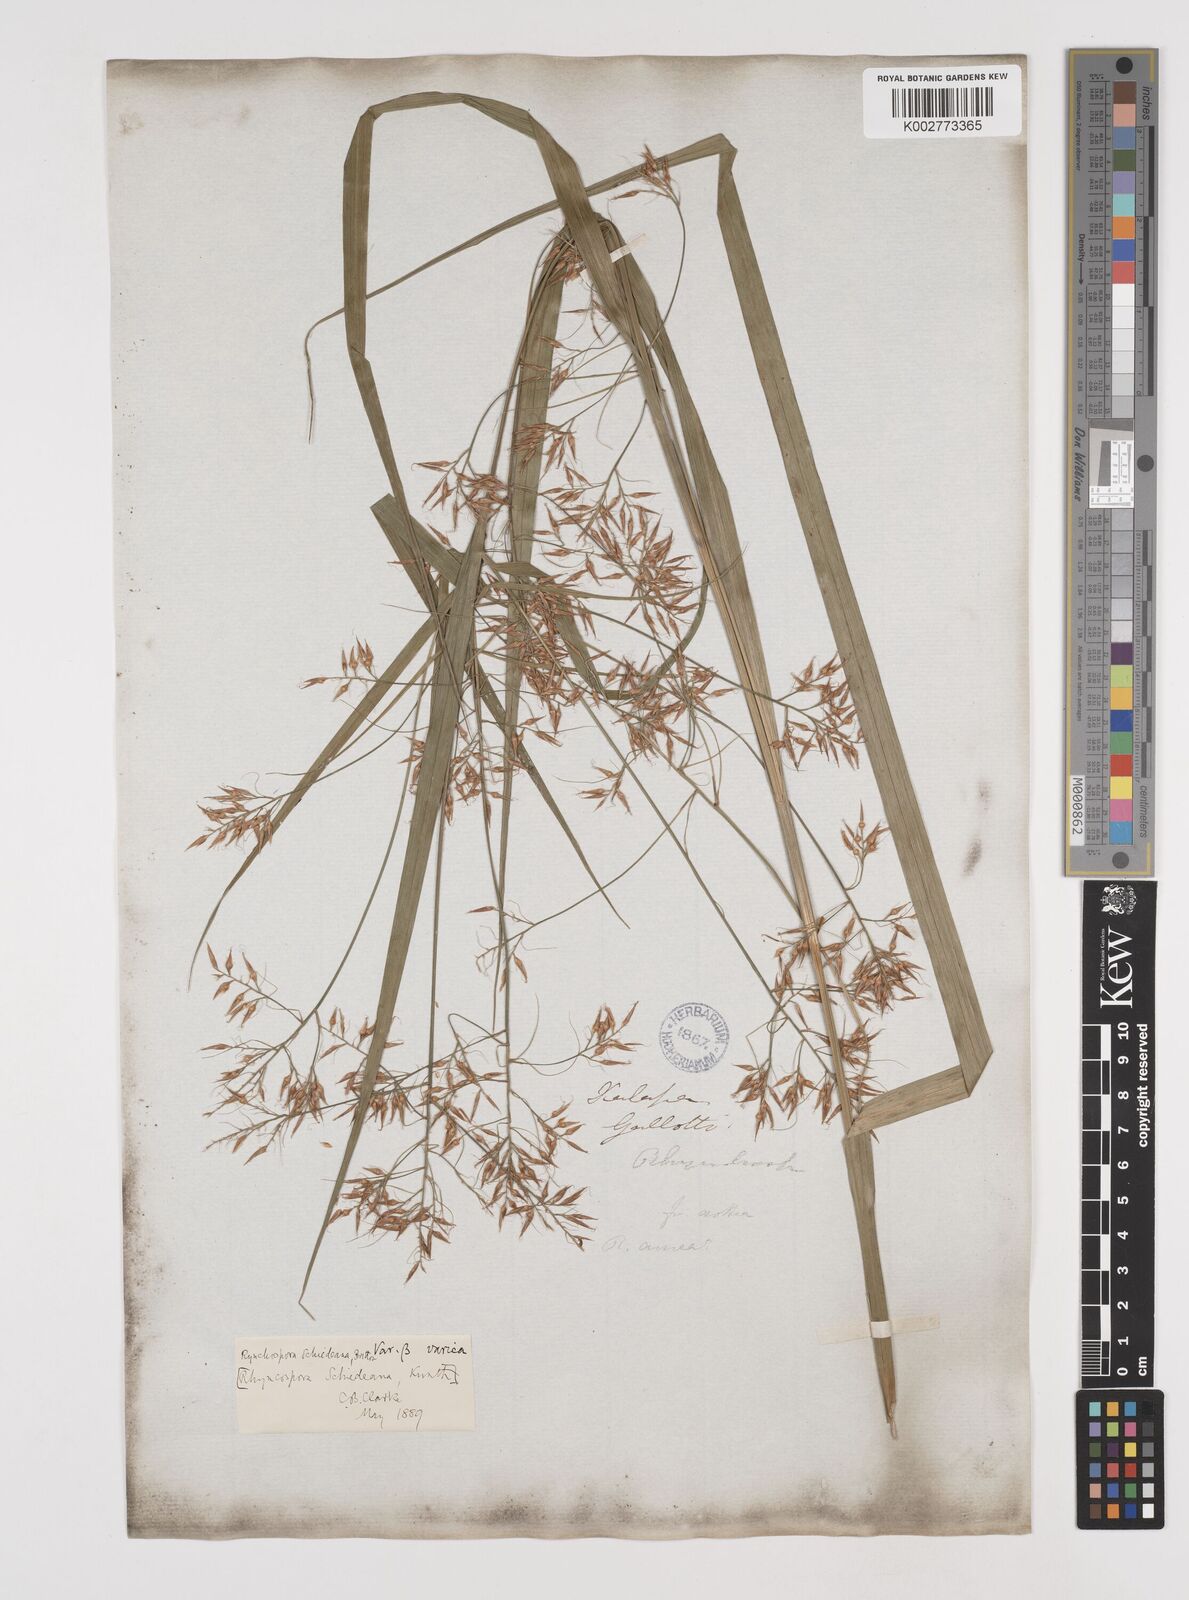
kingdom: Plantae
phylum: Tracheophyta
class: Liliopsida
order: Poales
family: Cyperaceae
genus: Rhynchospora
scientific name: Rhynchospora schiedeana
